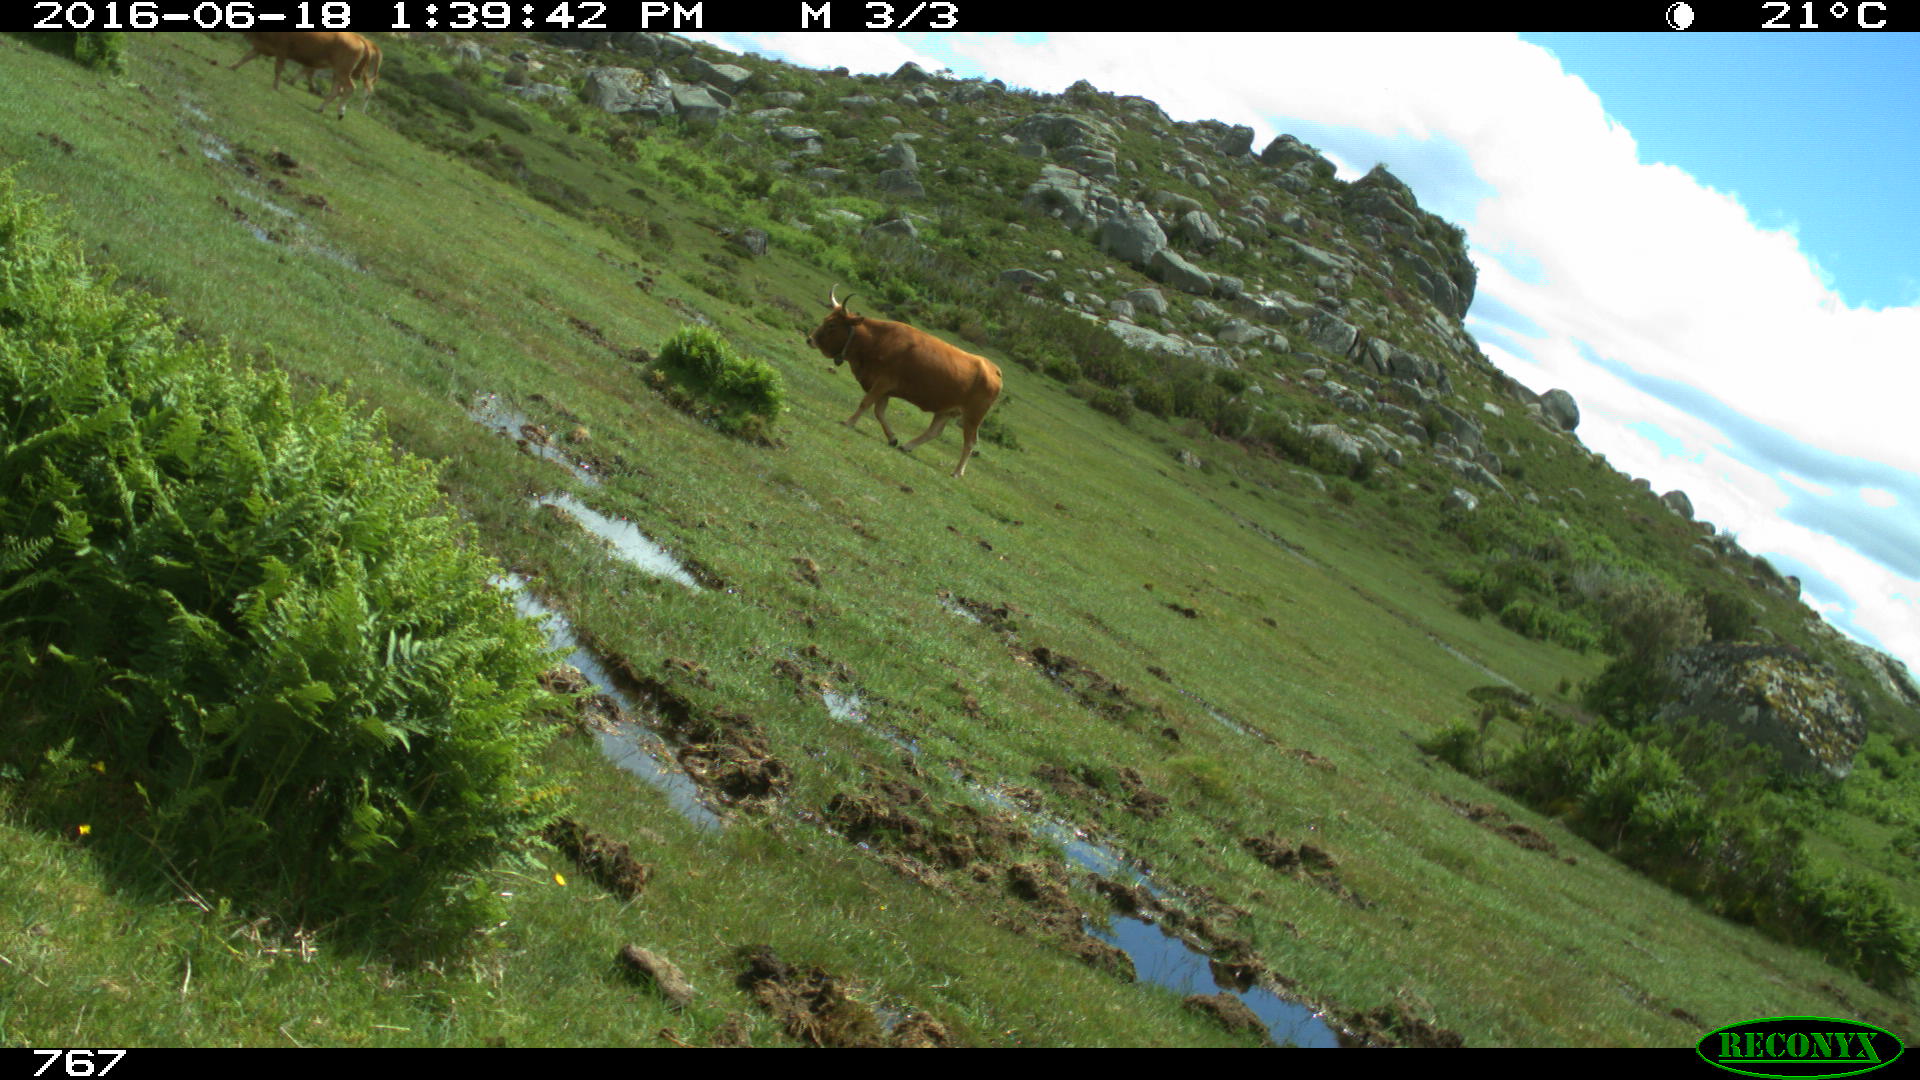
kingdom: Animalia
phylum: Chordata
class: Mammalia
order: Artiodactyla
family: Bovidae
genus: Bos
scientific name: Bos taurus
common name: Domesticated cattle
